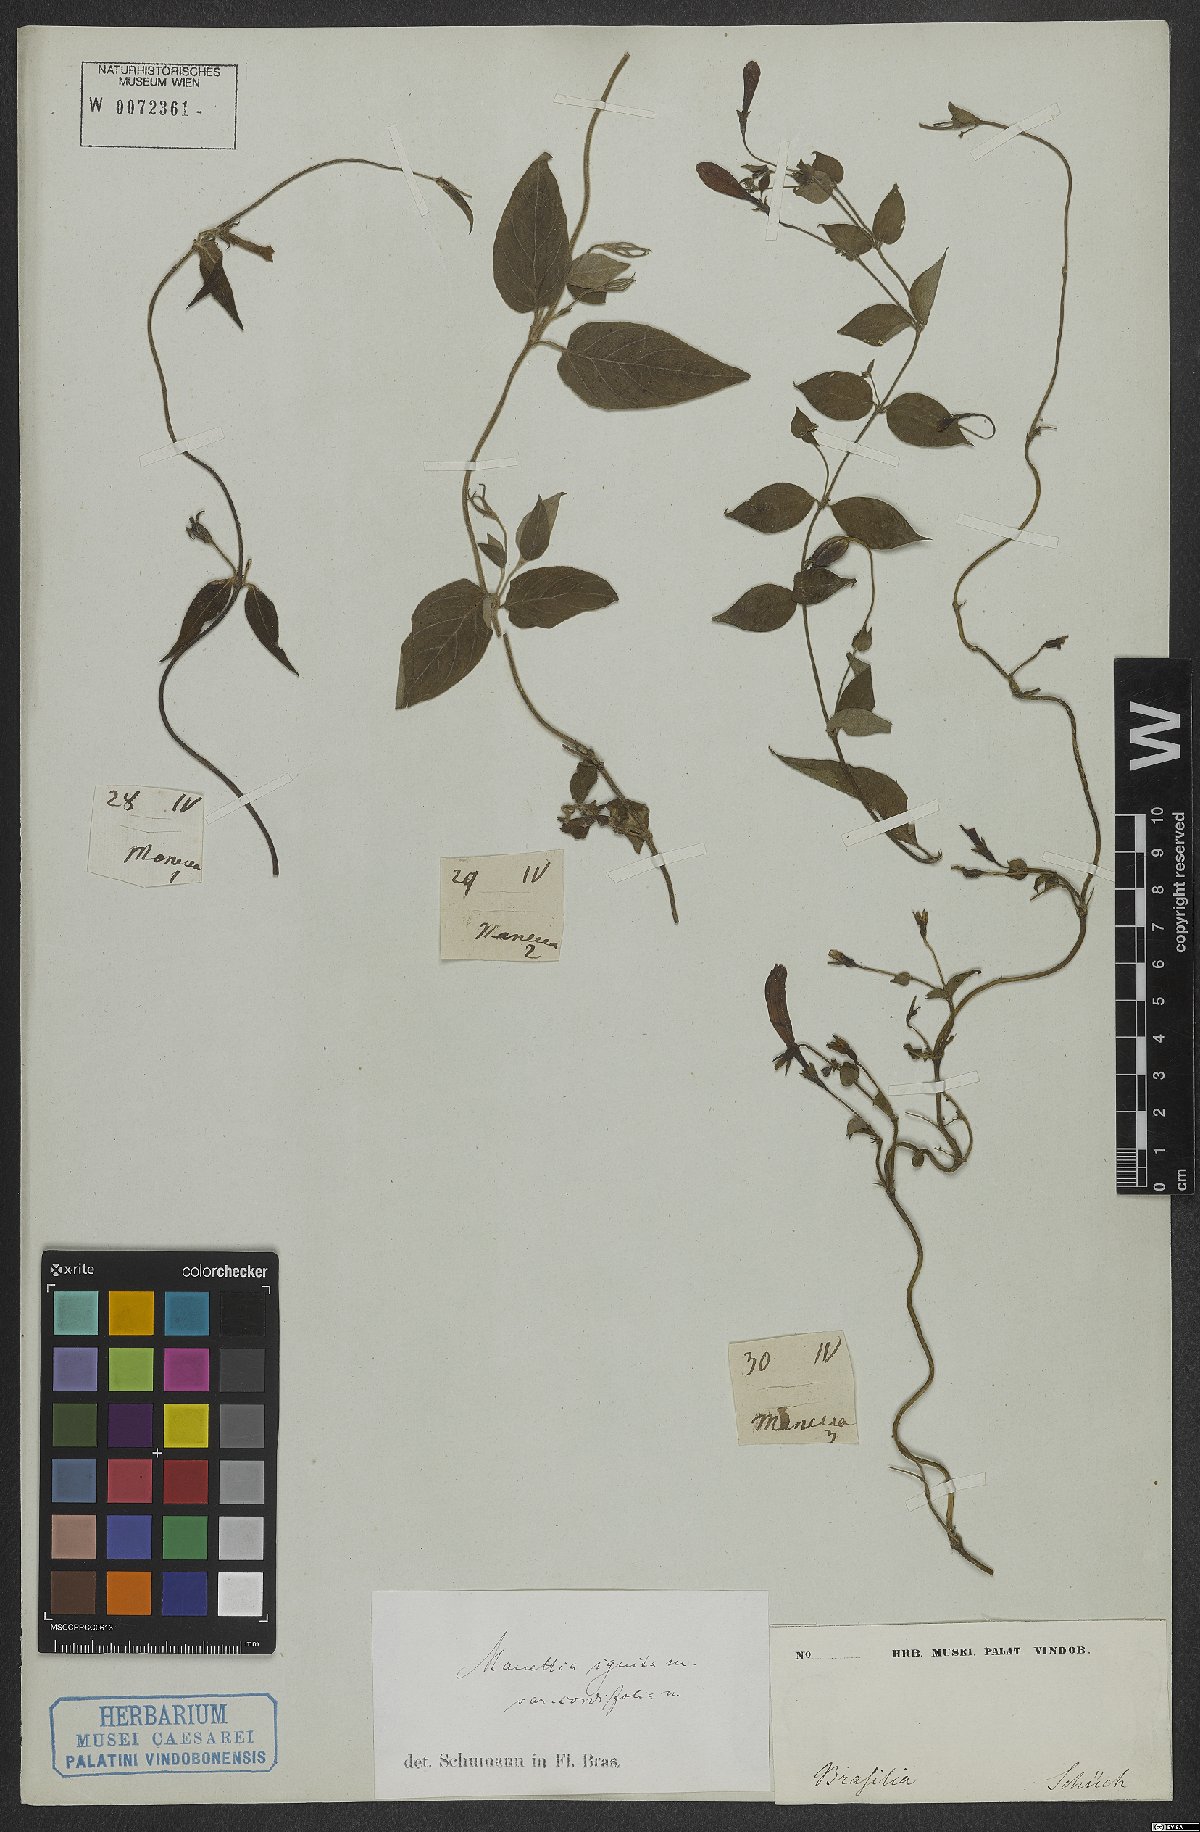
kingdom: Plantae
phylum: Tracheophyta
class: Magnoliopsida
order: Gentianales
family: Rubiaceae
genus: Manettia
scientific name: Manettia cordifolia
